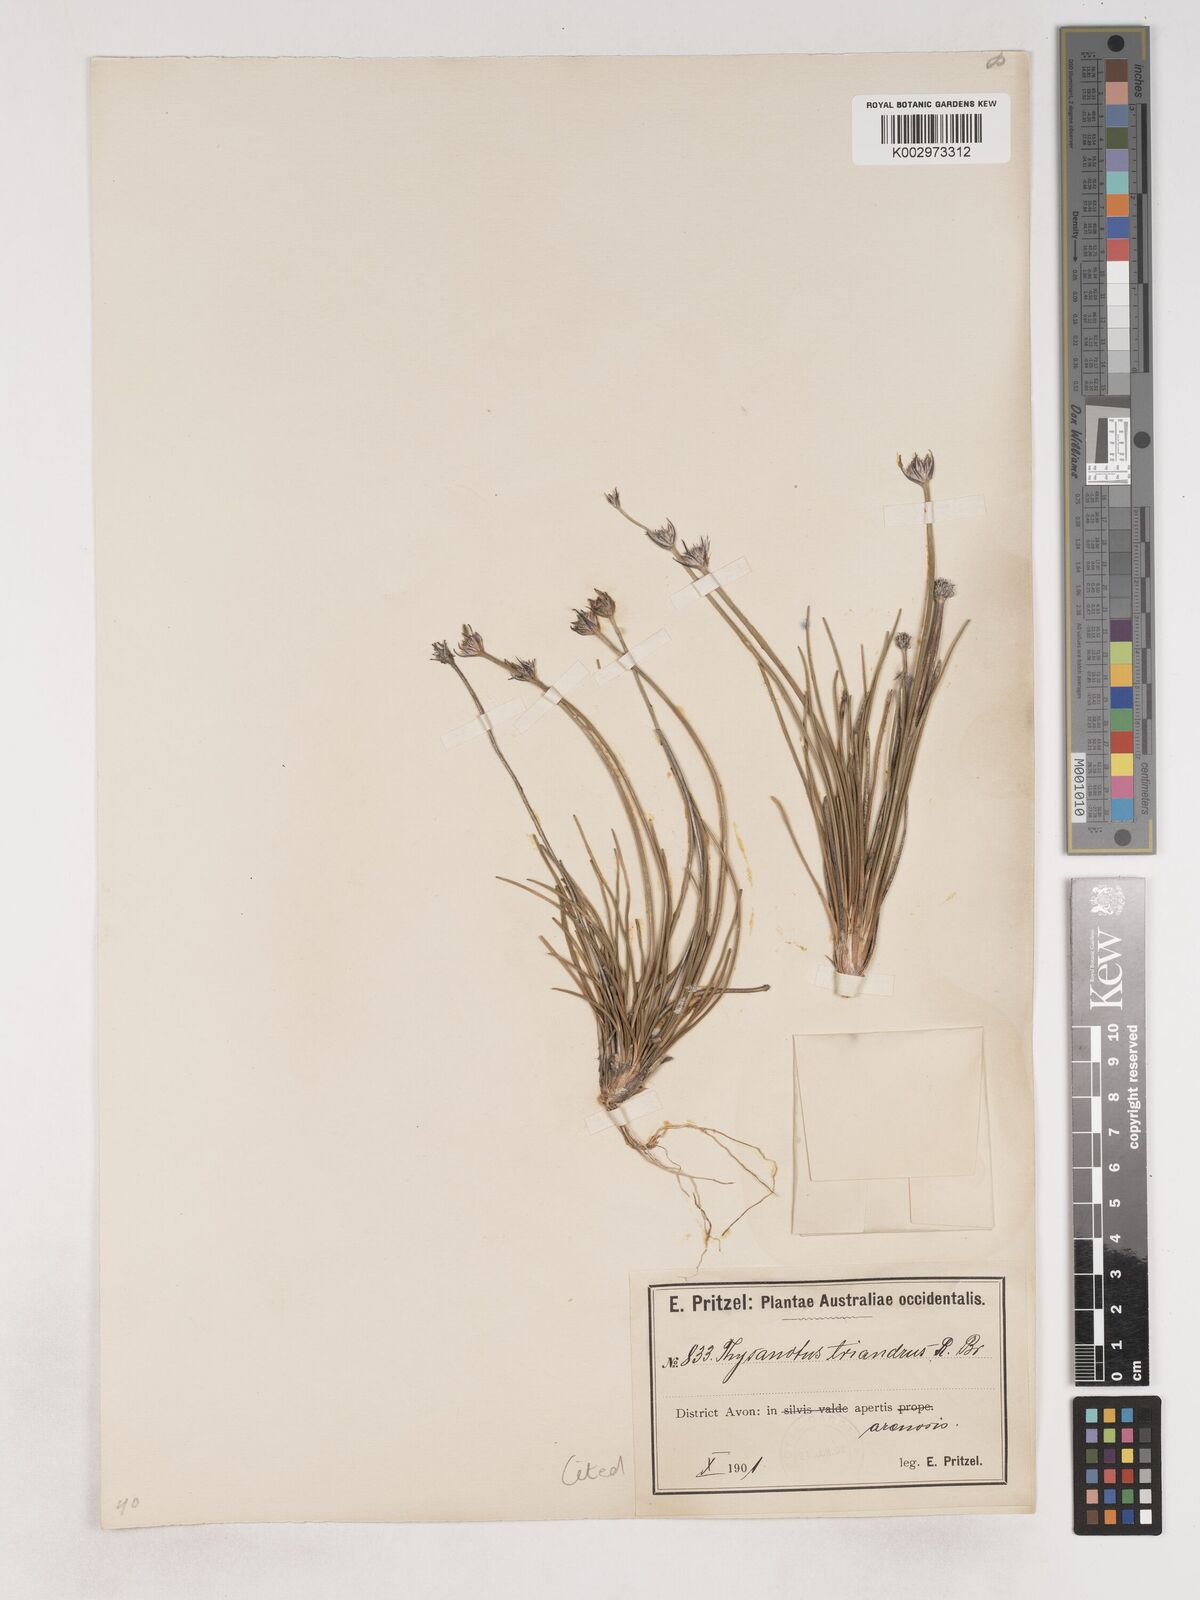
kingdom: Plantae
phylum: Tracheophyta
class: Liliopsida
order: Asparagales
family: Asparagaceae
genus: Thysanotus
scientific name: Thysanotus triandrus
